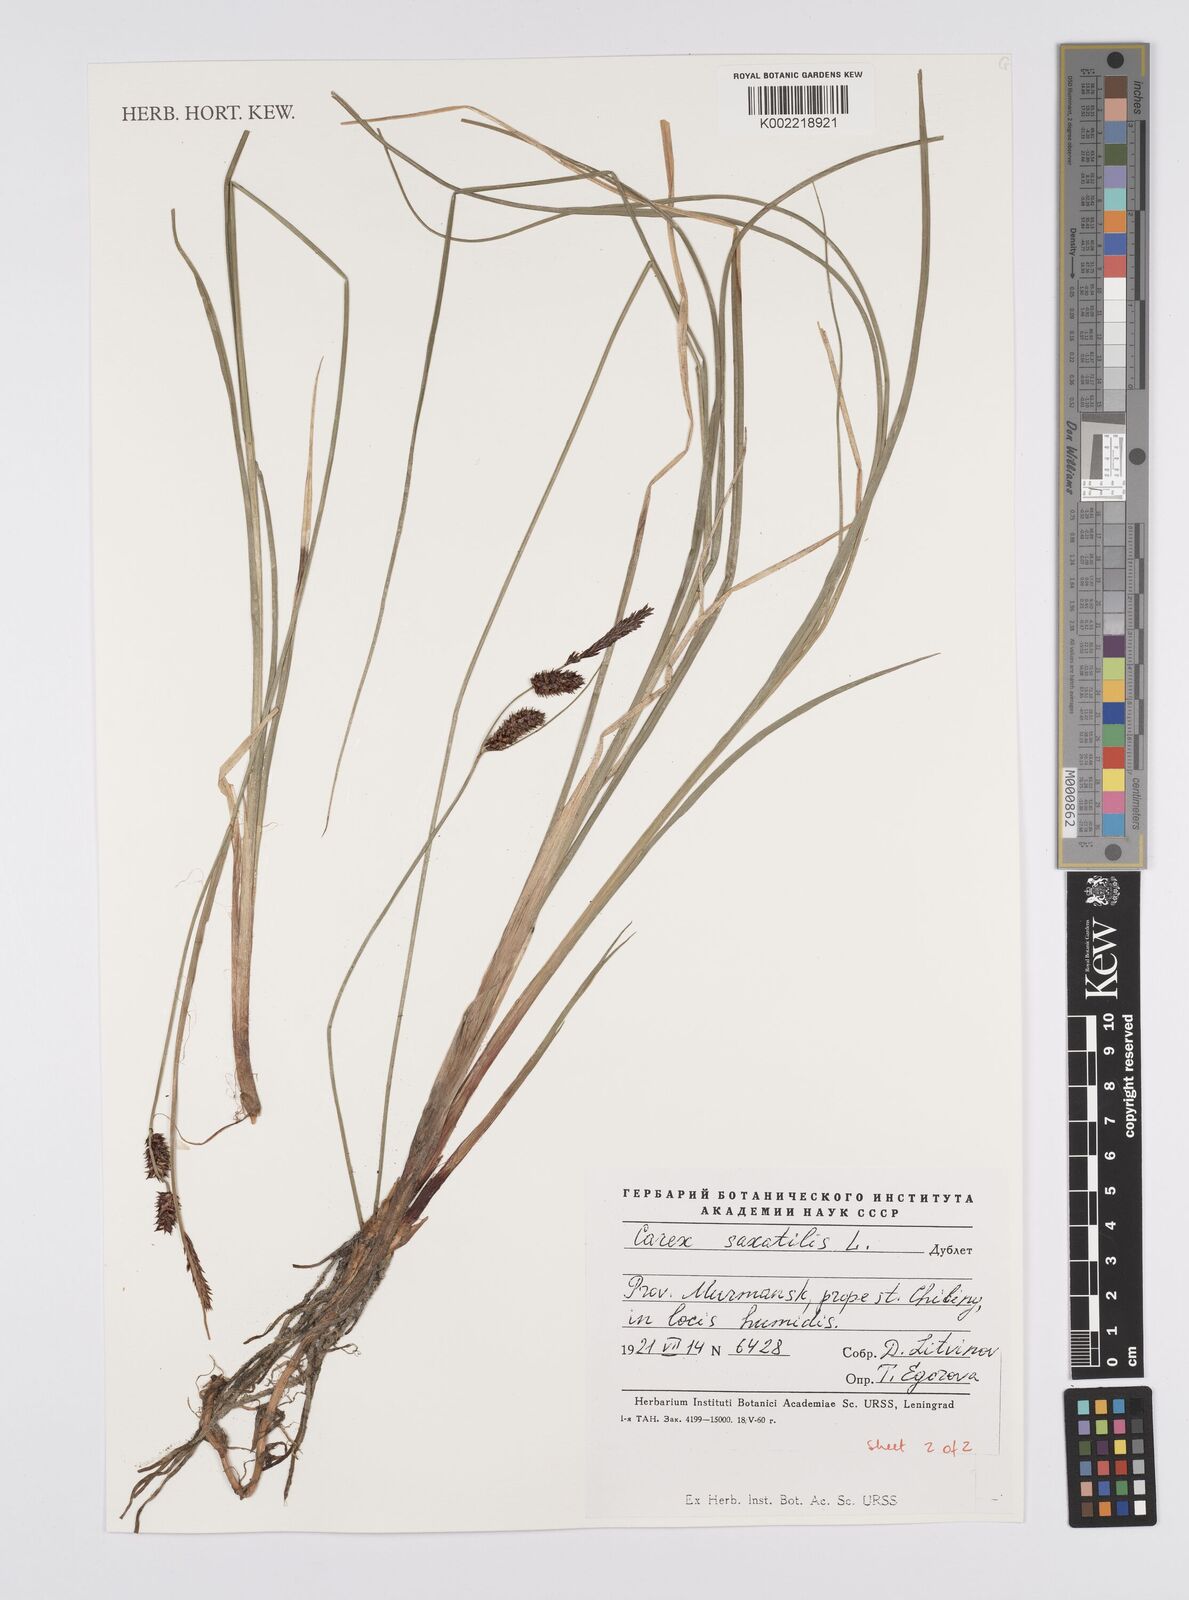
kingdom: Plantae
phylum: Tracheophyta
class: Liliopsida
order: Poales
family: Cyperaceae
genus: Carex
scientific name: Carex saxatilis
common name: Russet sedge
